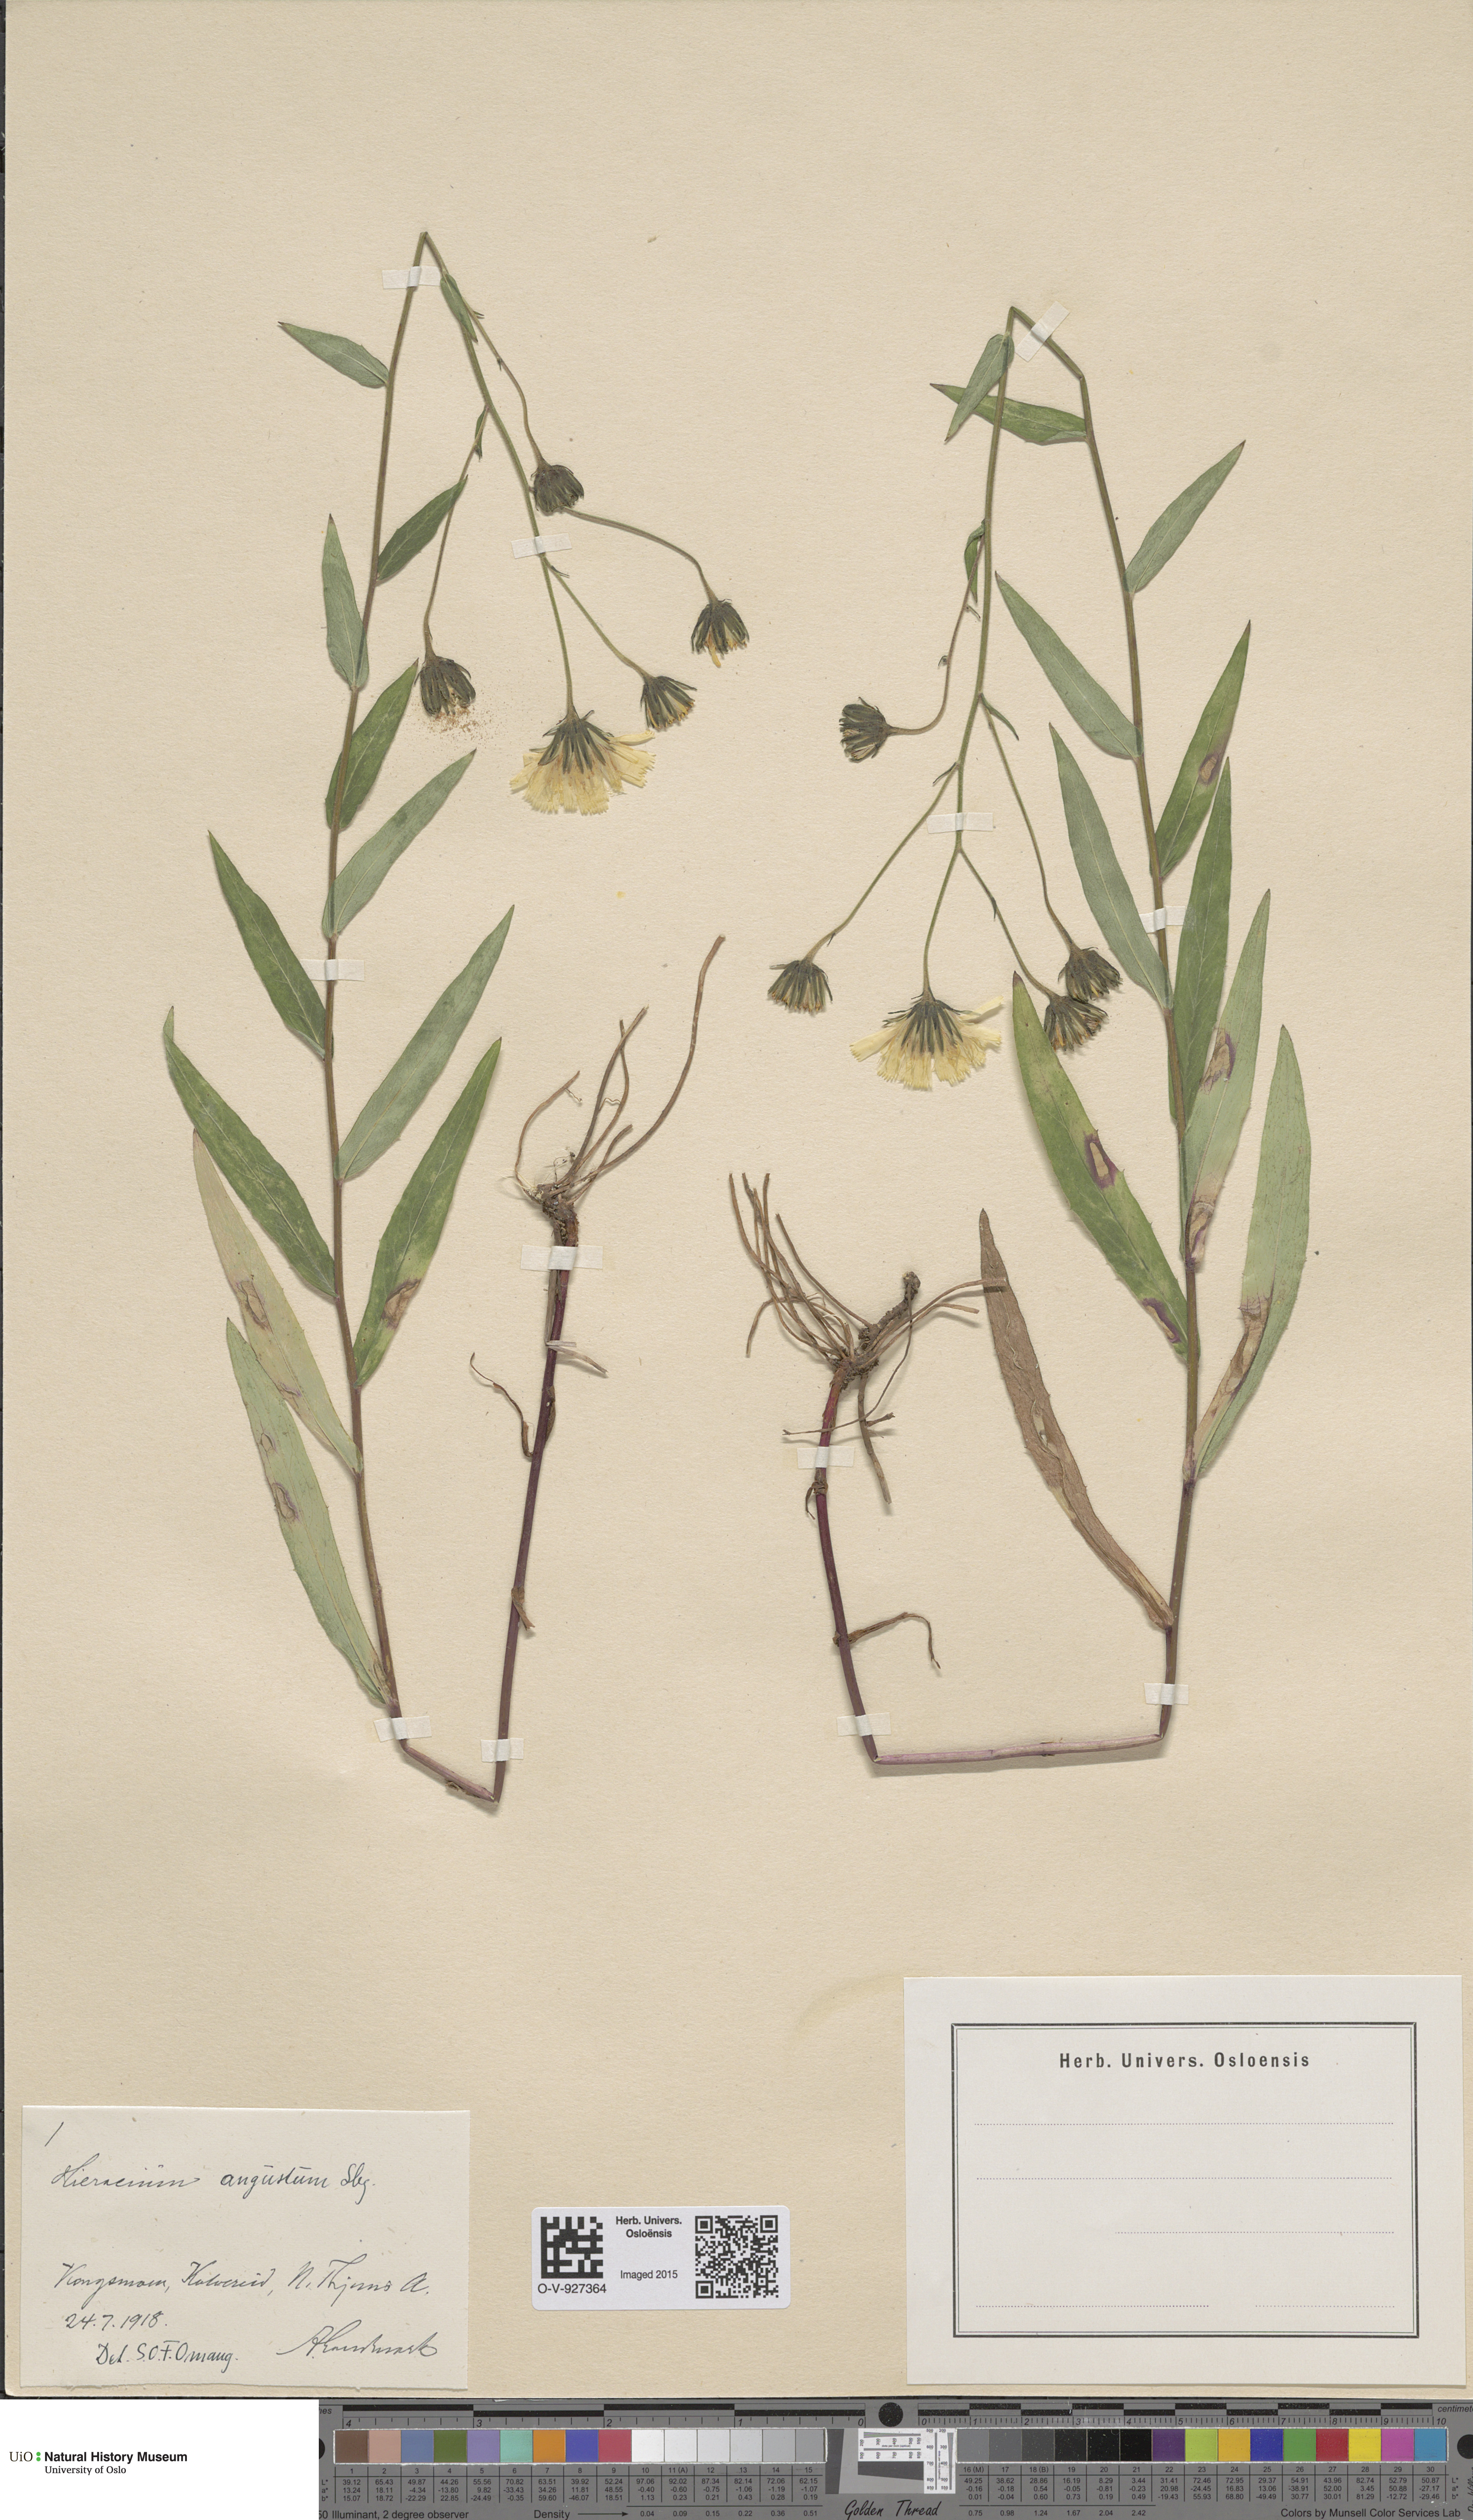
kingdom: Plantae
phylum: Tracheophyta
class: Magnoliopsida
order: Asterales
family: Asteraceae
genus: Hieracium
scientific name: Hieracium angustum
